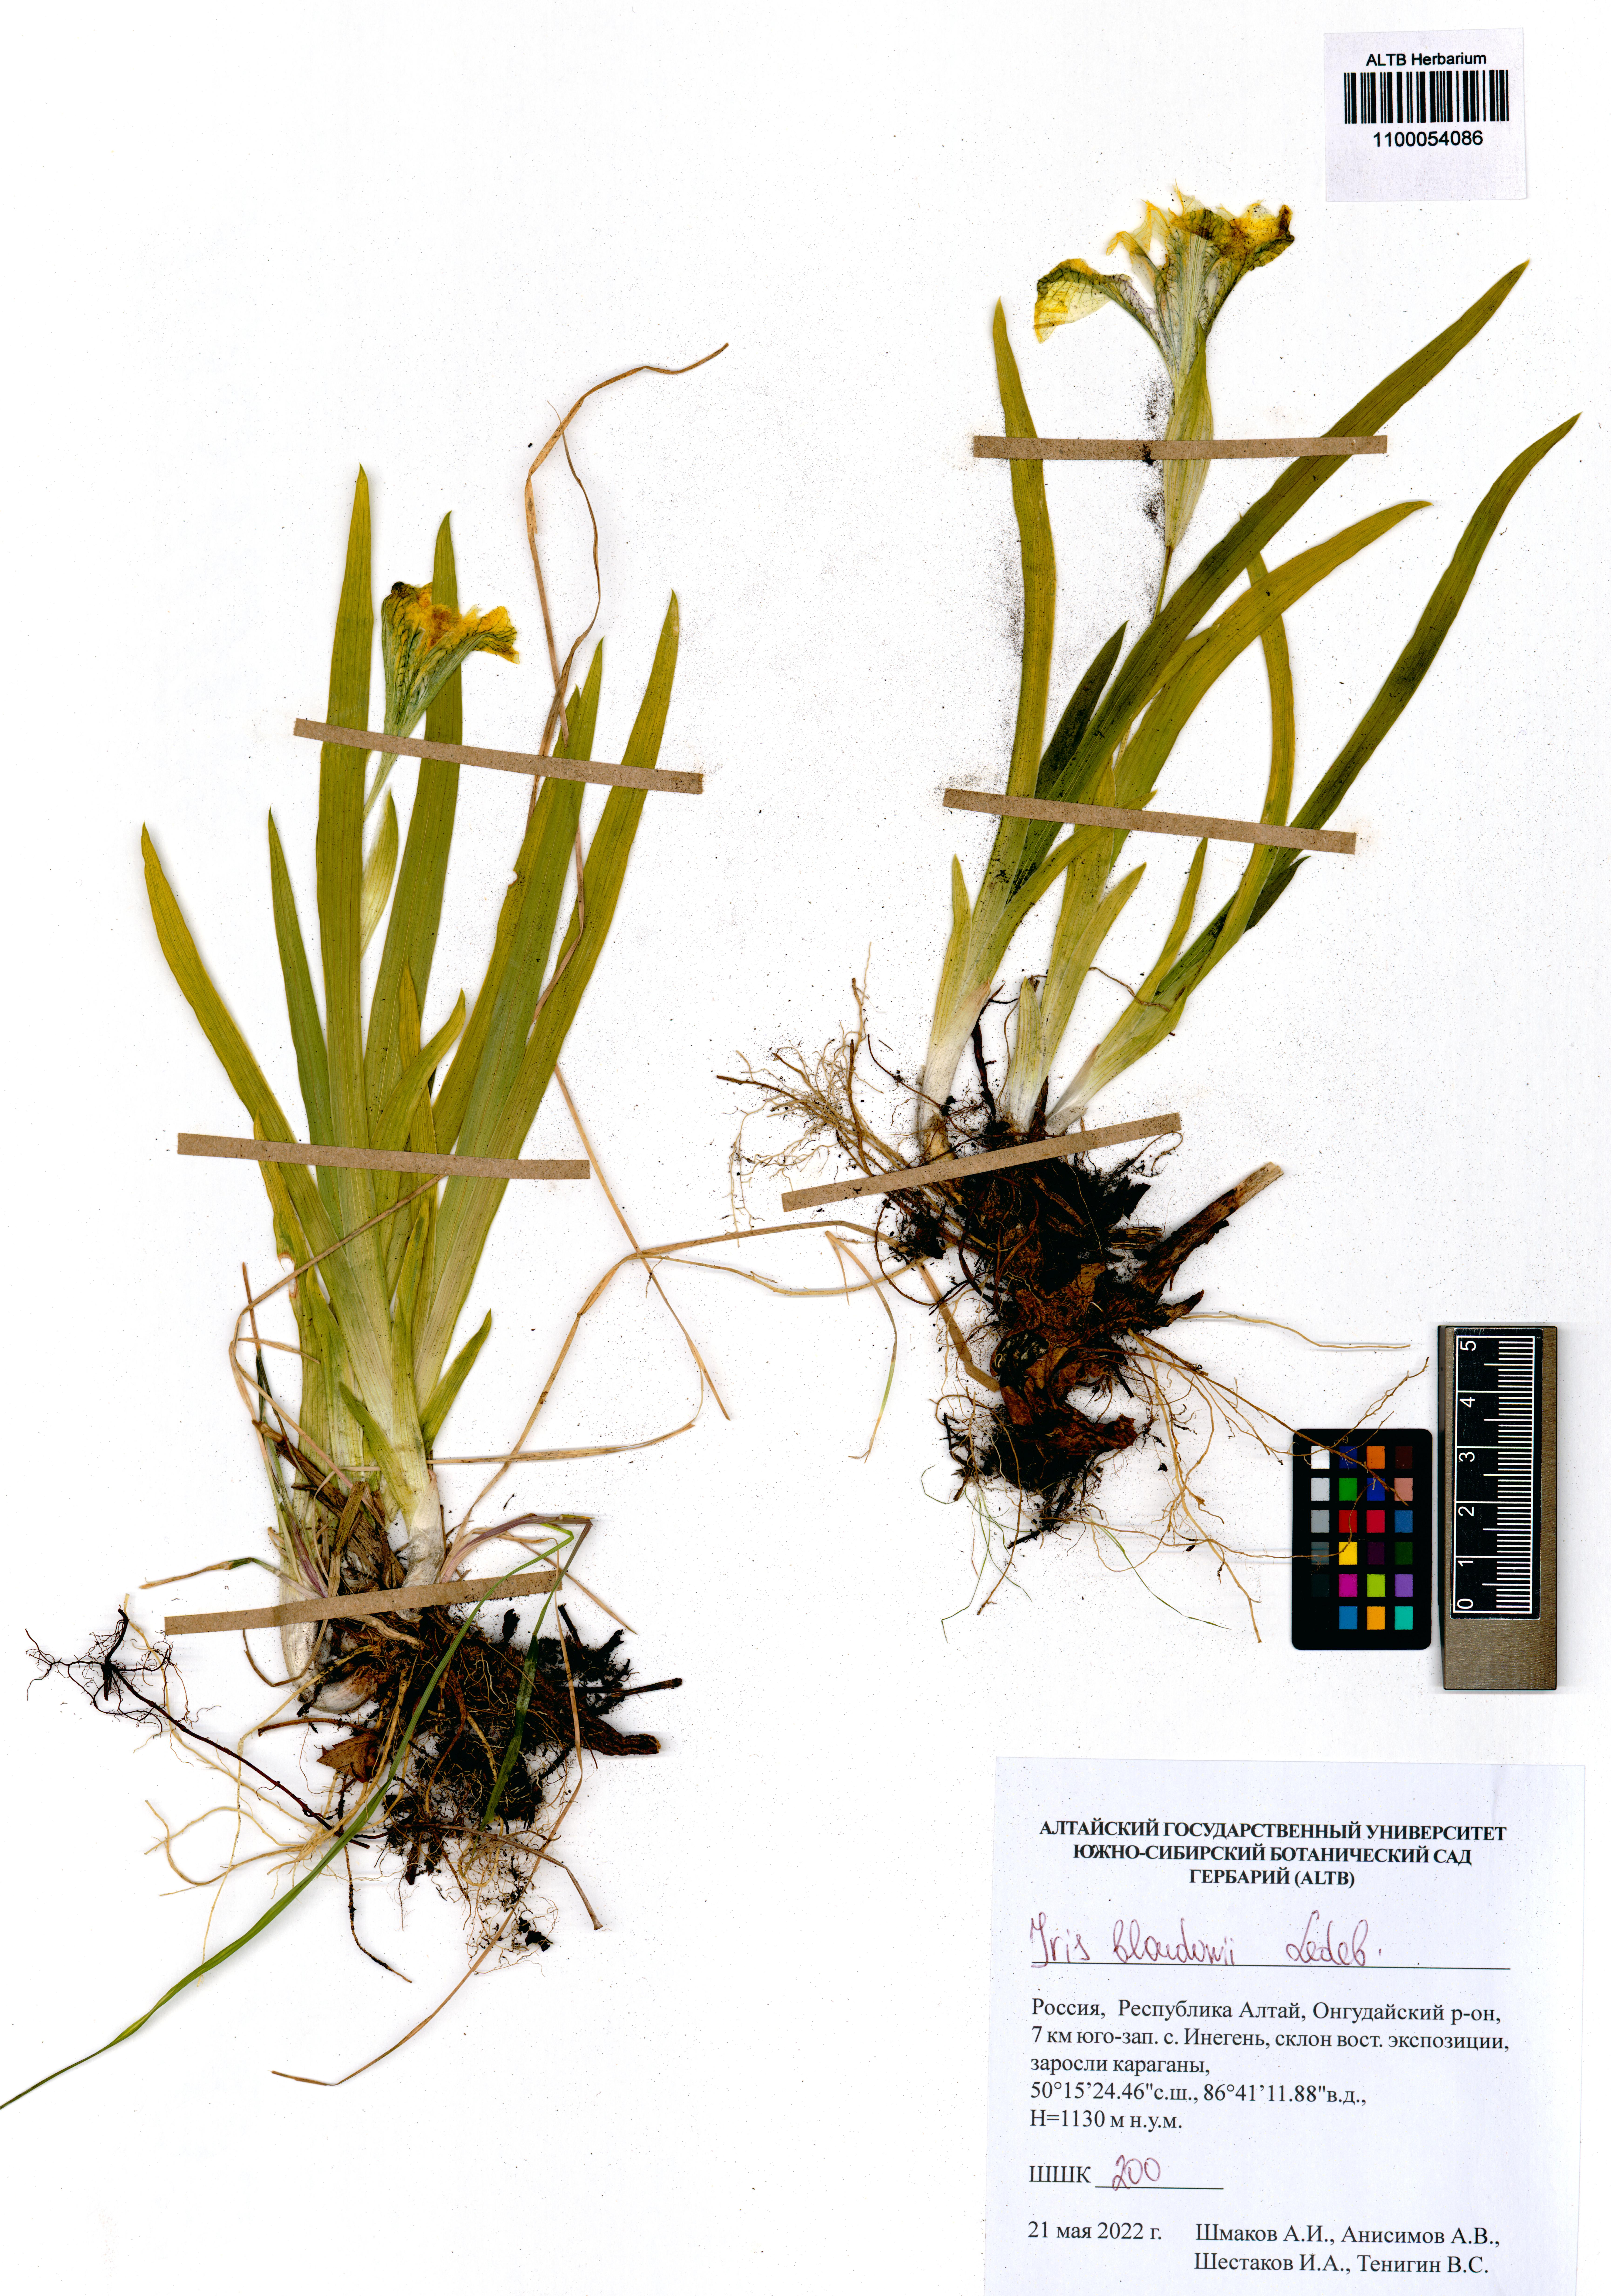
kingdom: Plantae
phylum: Tracheophyta
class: Liliopsida
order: Asparagales
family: Iridaceae
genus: Iris
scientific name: Iris bloudowii
